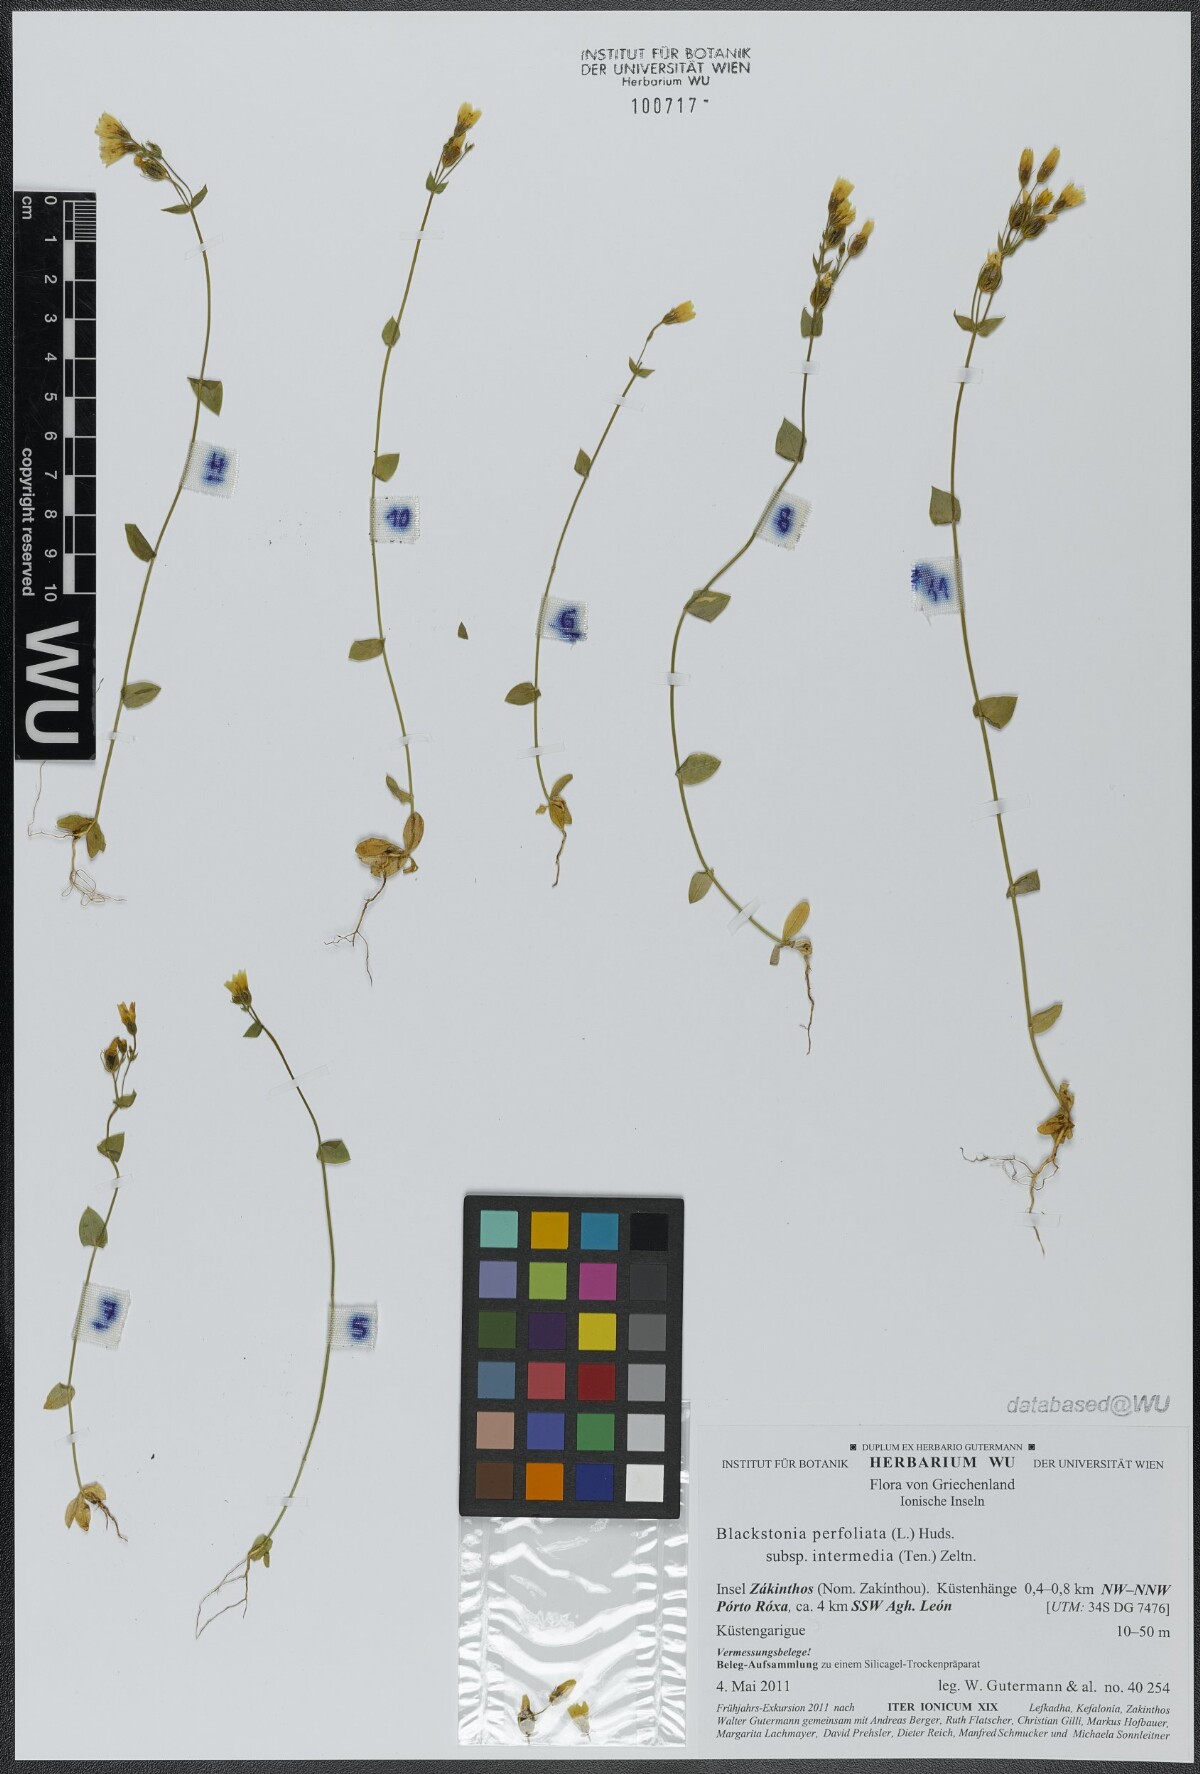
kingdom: Plantae
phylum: Tracheophyta
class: Magnoliopsida
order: Gentianales
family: Gentianaceae
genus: Blackstonia
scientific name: Blackstonia perfoliata
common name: Yellow-wort
